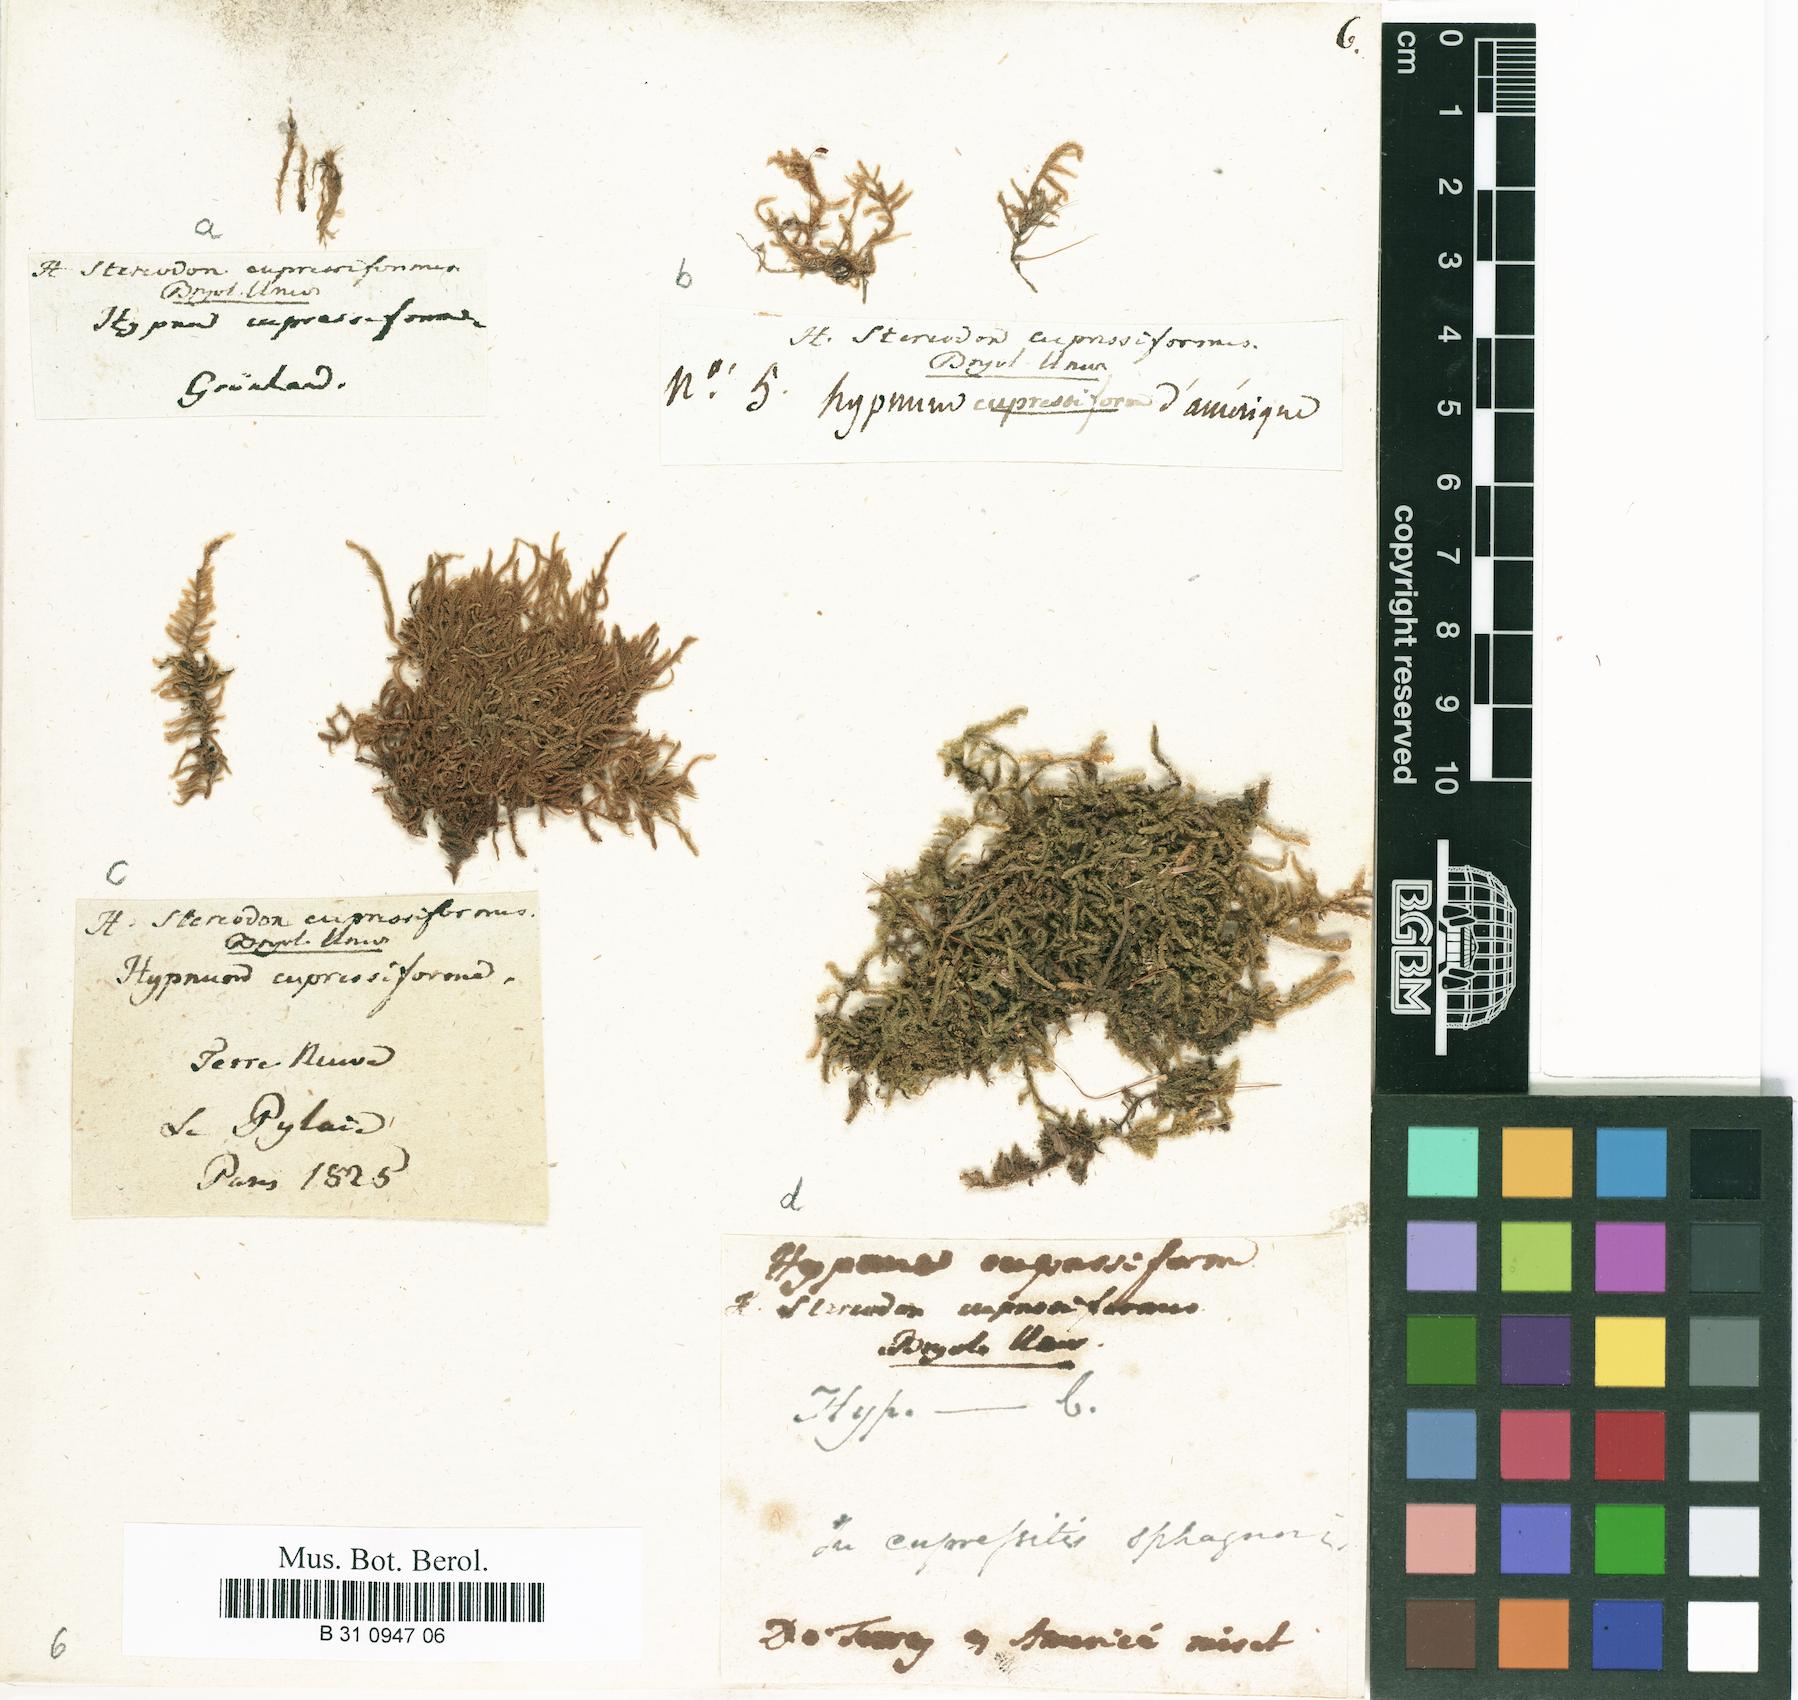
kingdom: Plantae
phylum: Bryophyta
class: Bryopsida
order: Hypnales
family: Hypnaceae
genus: Hypnum
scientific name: Hypnum cupressiforme
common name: Cypress-leaved plait-moss
